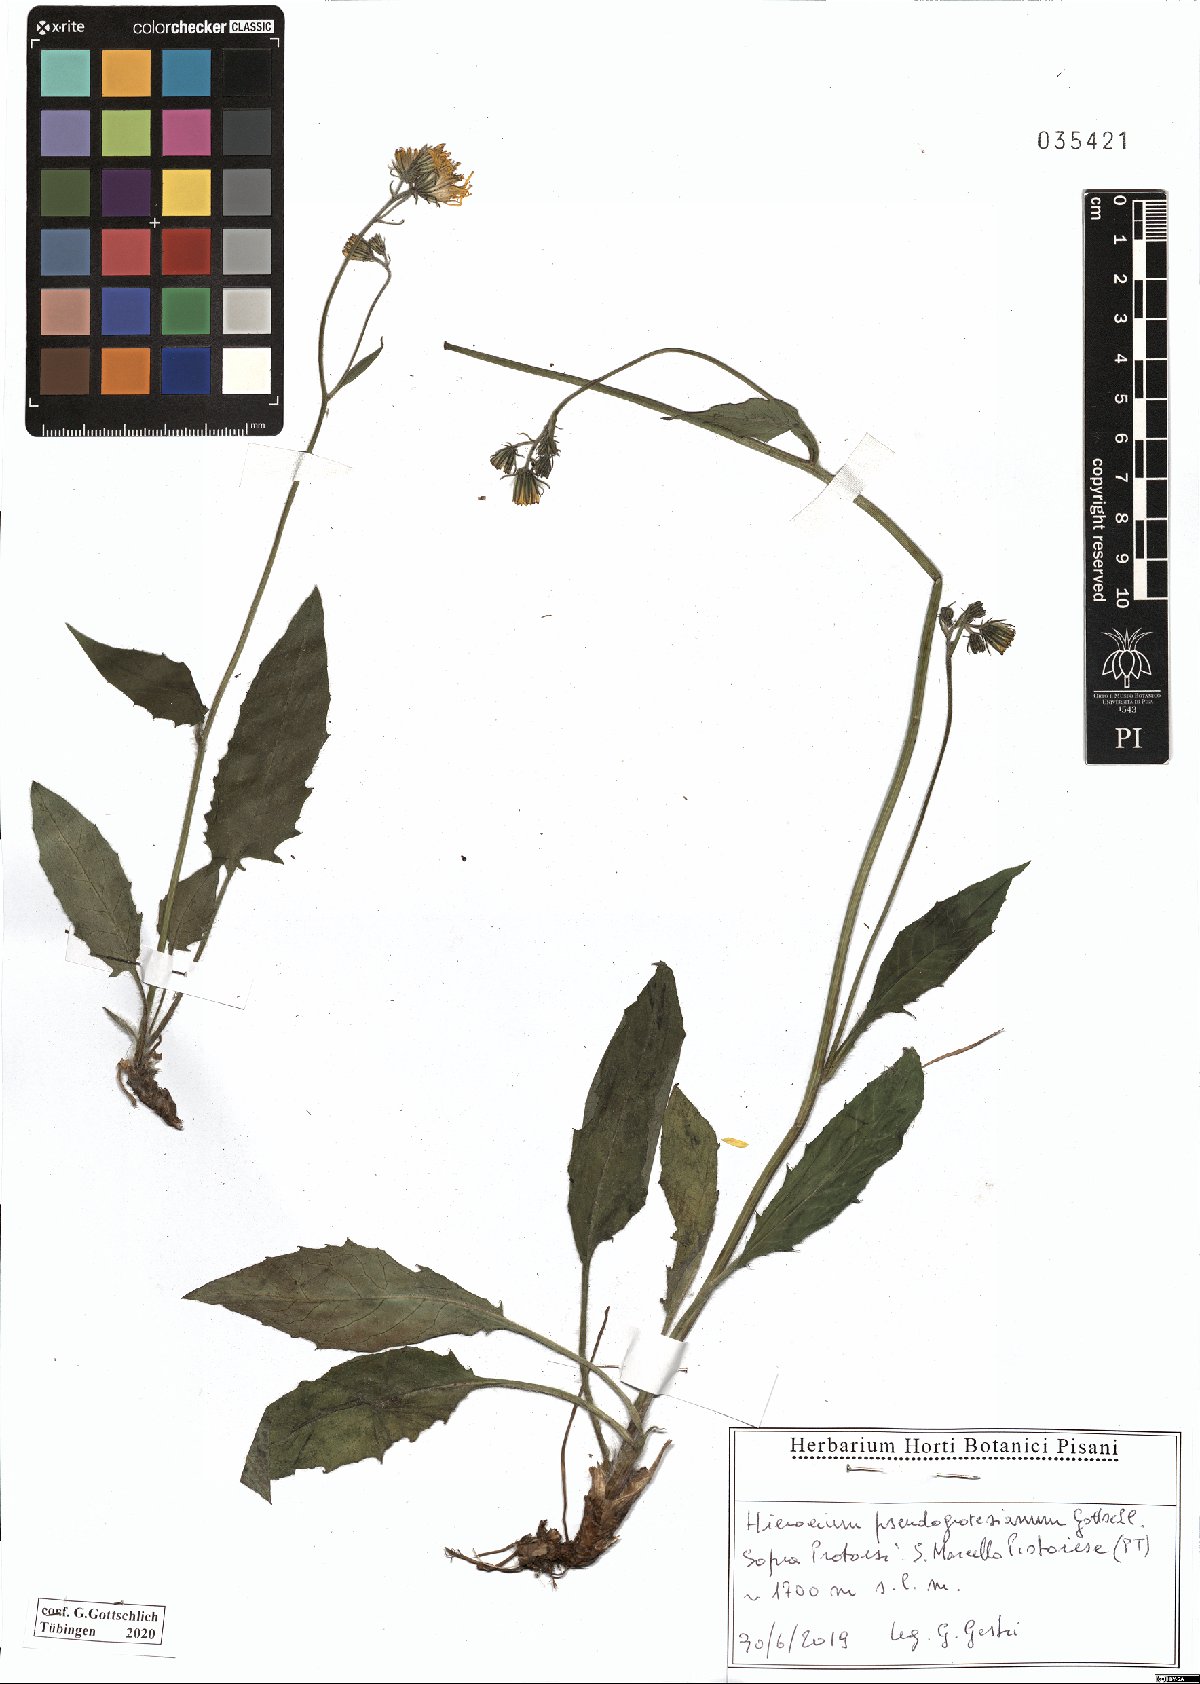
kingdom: Plantae
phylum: Tracheophyta
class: Magnoliopsida
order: Asterales
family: Asteraceae
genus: Hieracium
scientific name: Hieracium pseudogrovesianum
